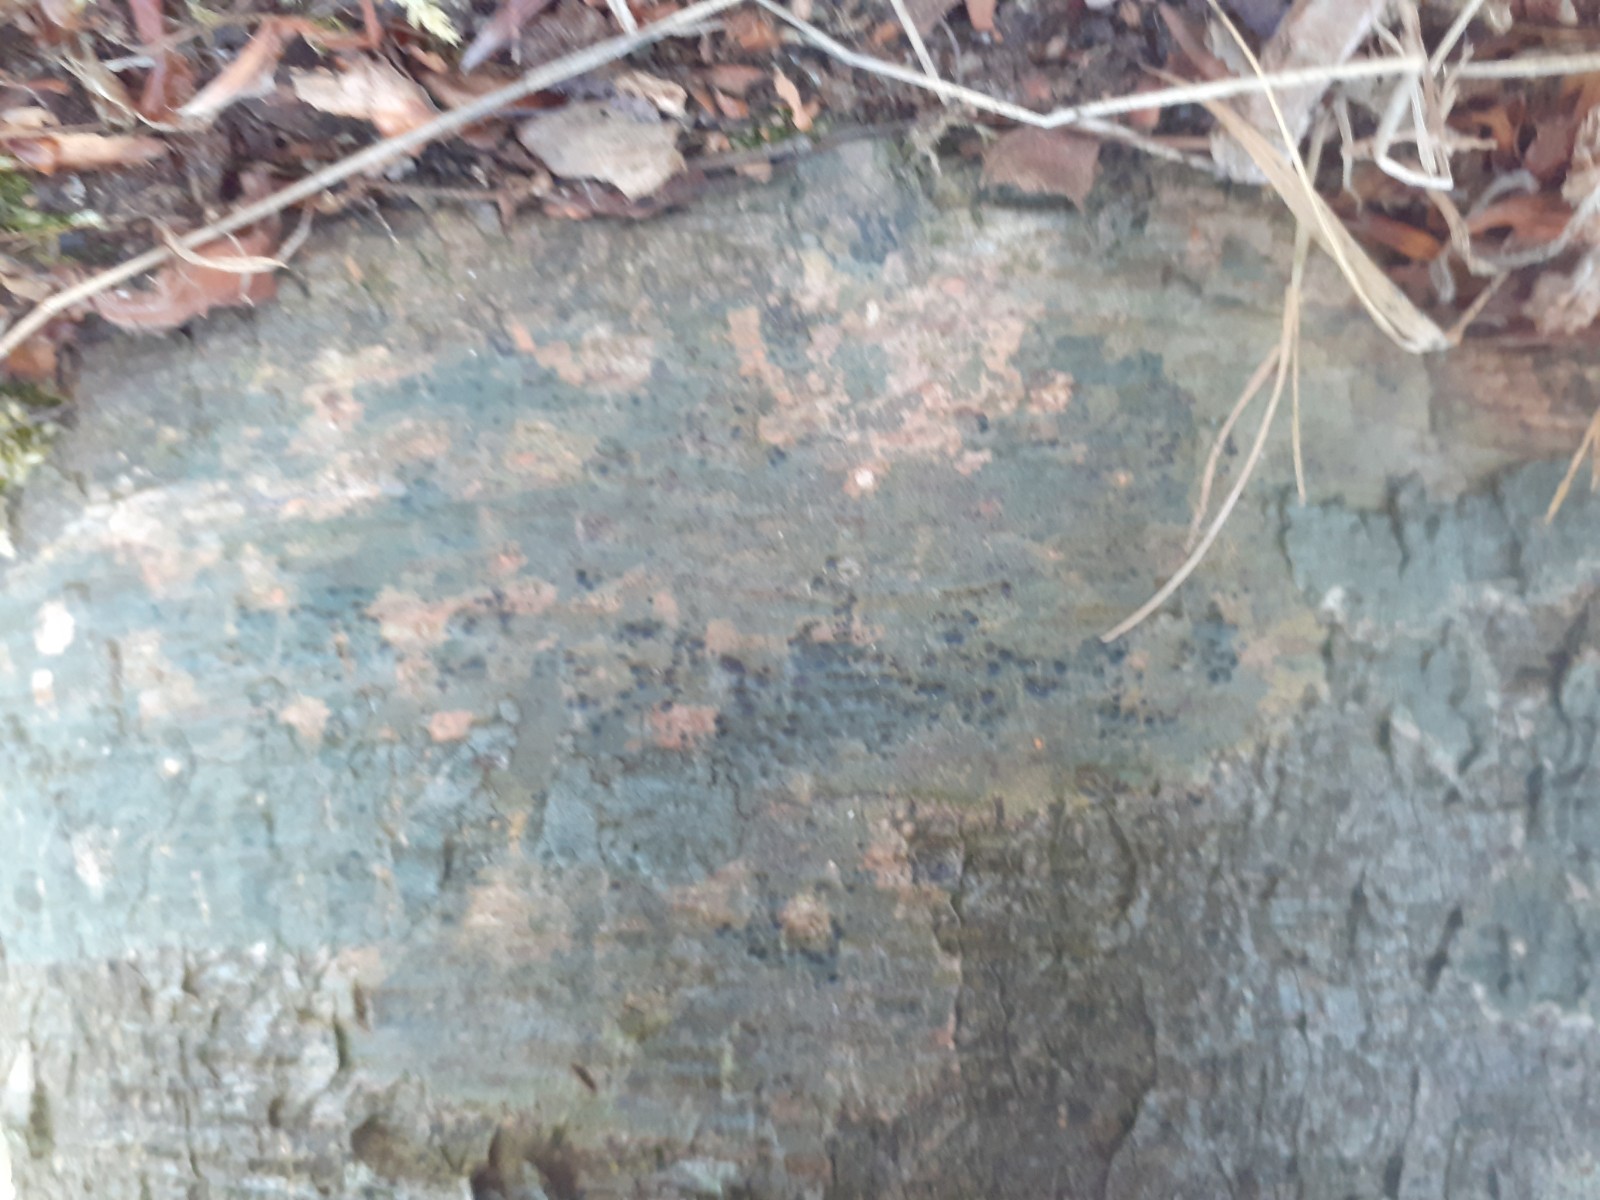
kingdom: Fungi
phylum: Ascomycota
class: Eurotiomycetes
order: Pyrenulales
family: Pyrenulaceae
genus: Pyrenula
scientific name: Pyrenula nitida
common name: glinsende kernelav
